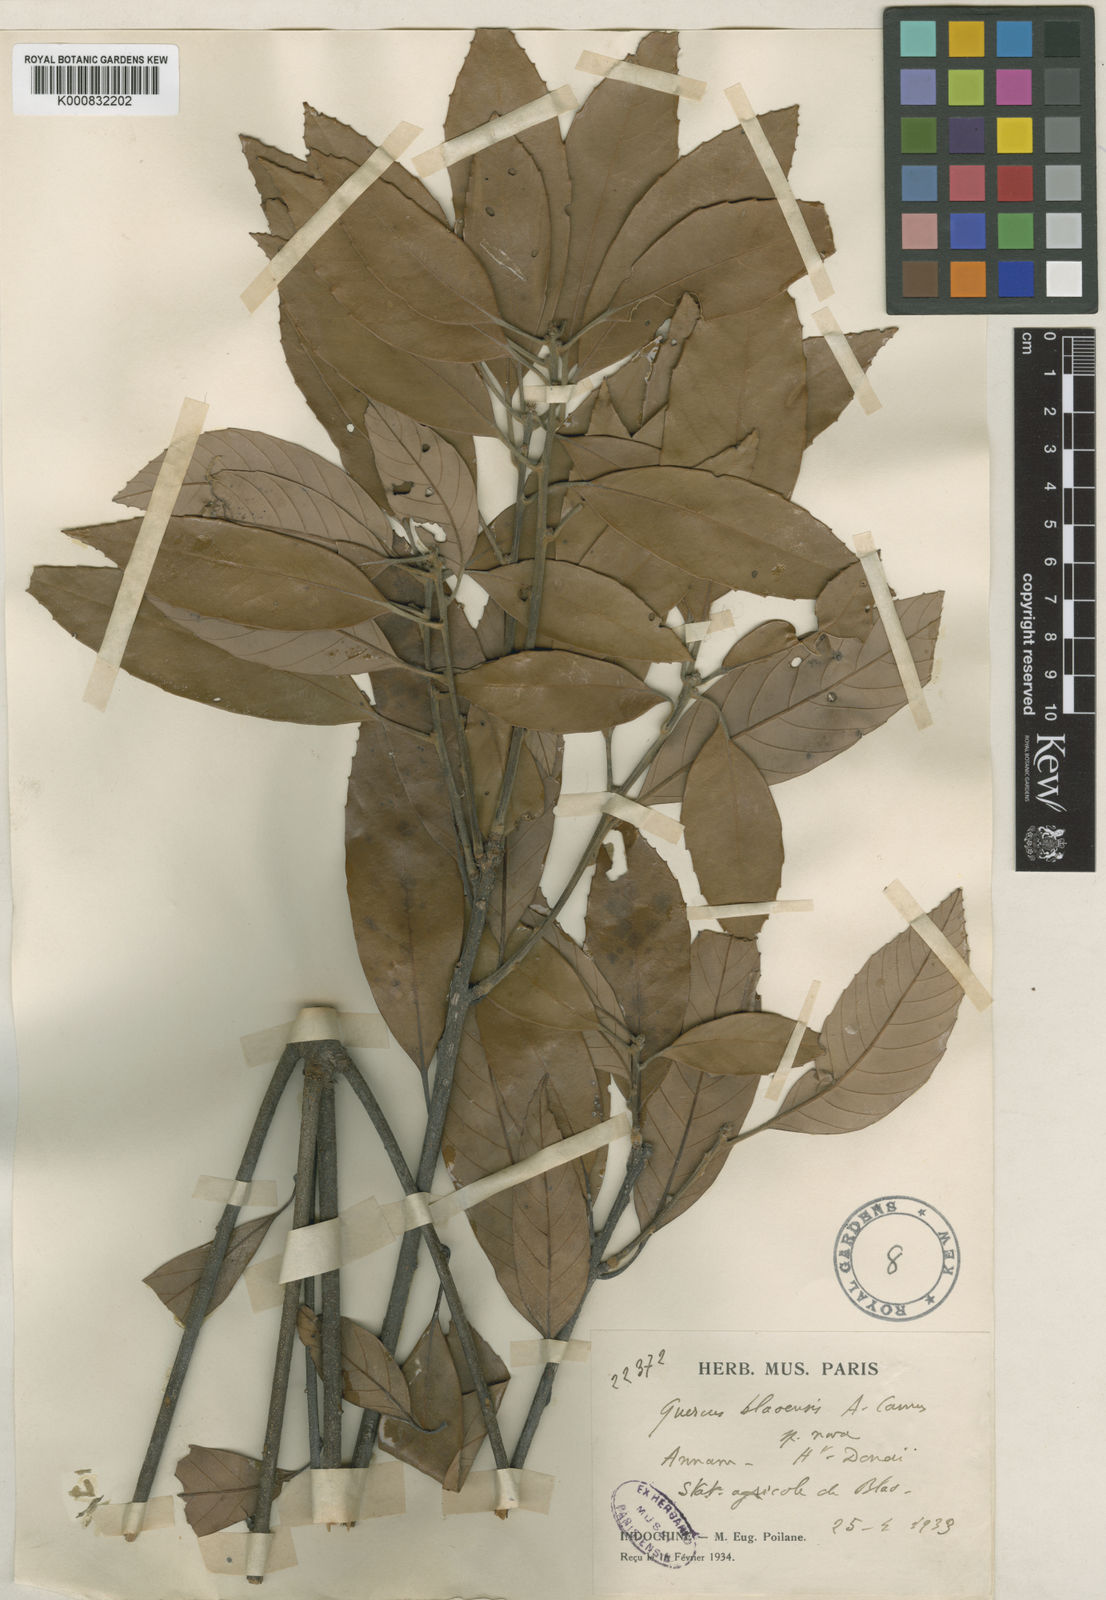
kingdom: Plantae
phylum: Tracheophyta
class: Magnoliopsida
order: Fagales
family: Fagaceae
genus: Quercus
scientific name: Quercus langbianensis
